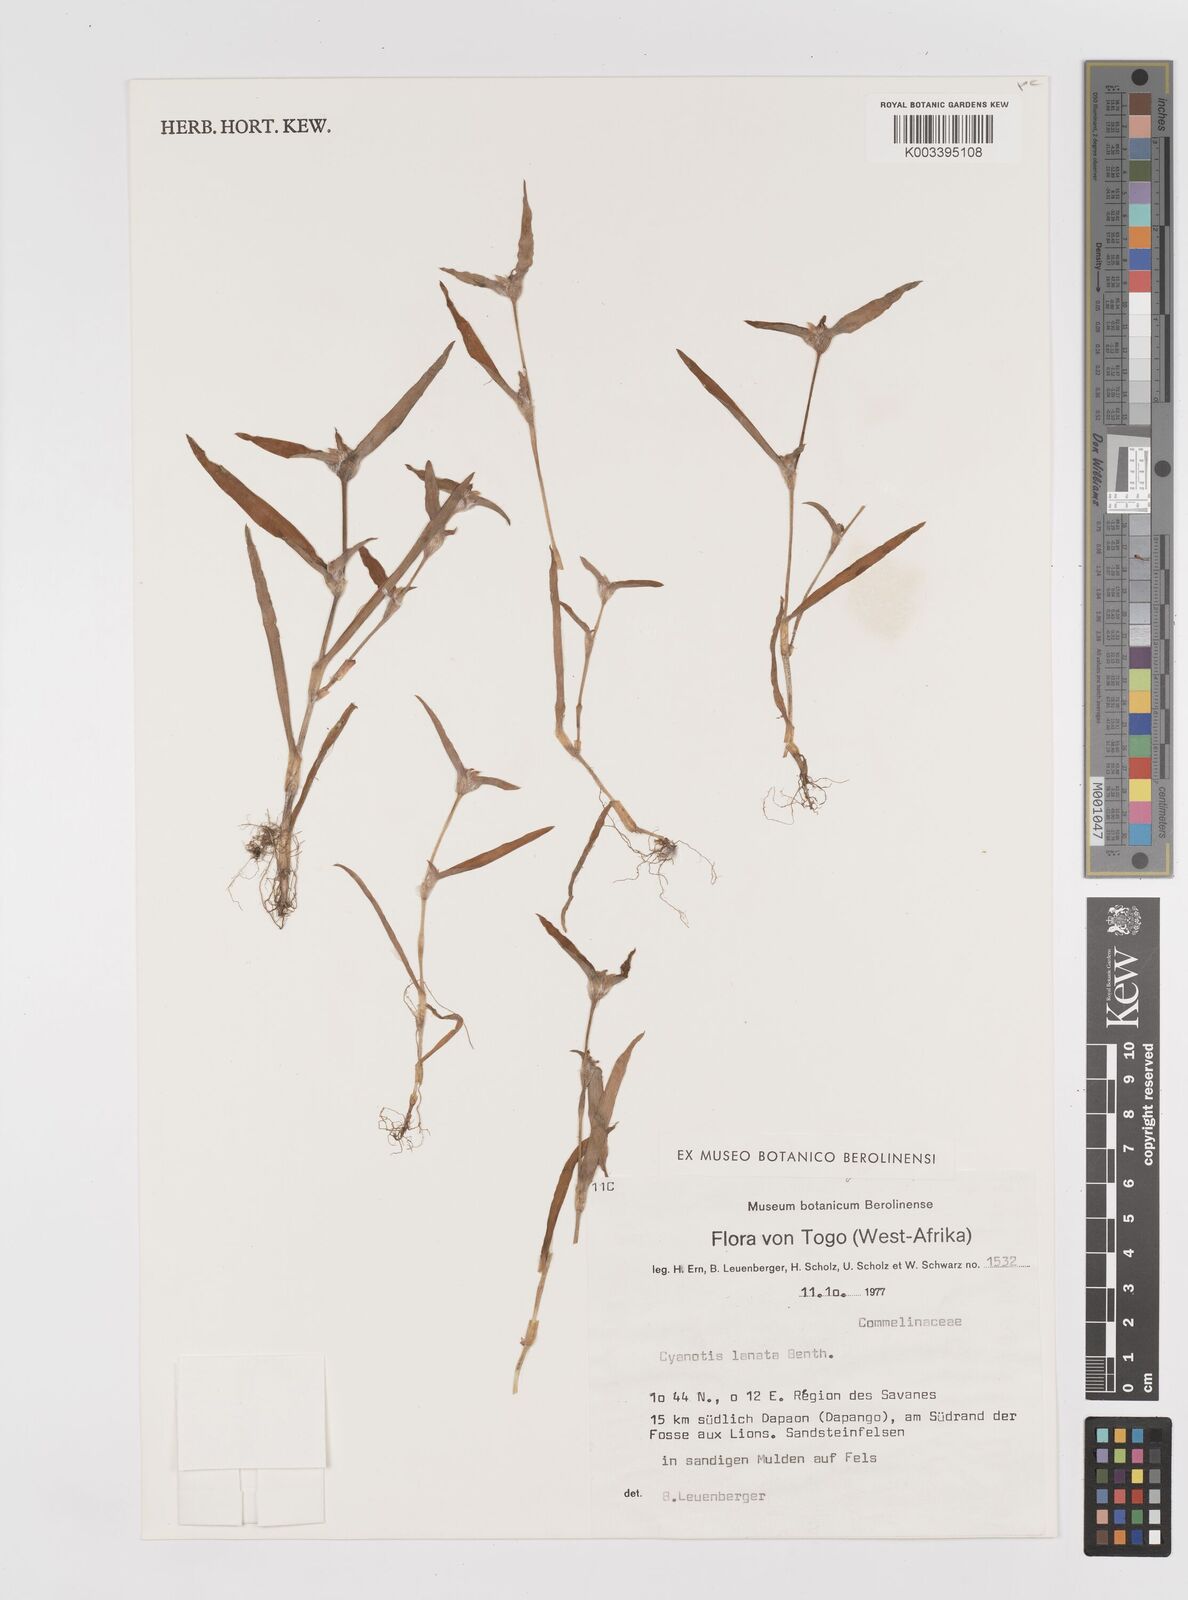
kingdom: Plantae
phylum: Tracheophyta
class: Liliopsida
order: Commelinales
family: Commelinaceae
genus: Cyanotis
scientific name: Cyanotis lanata
